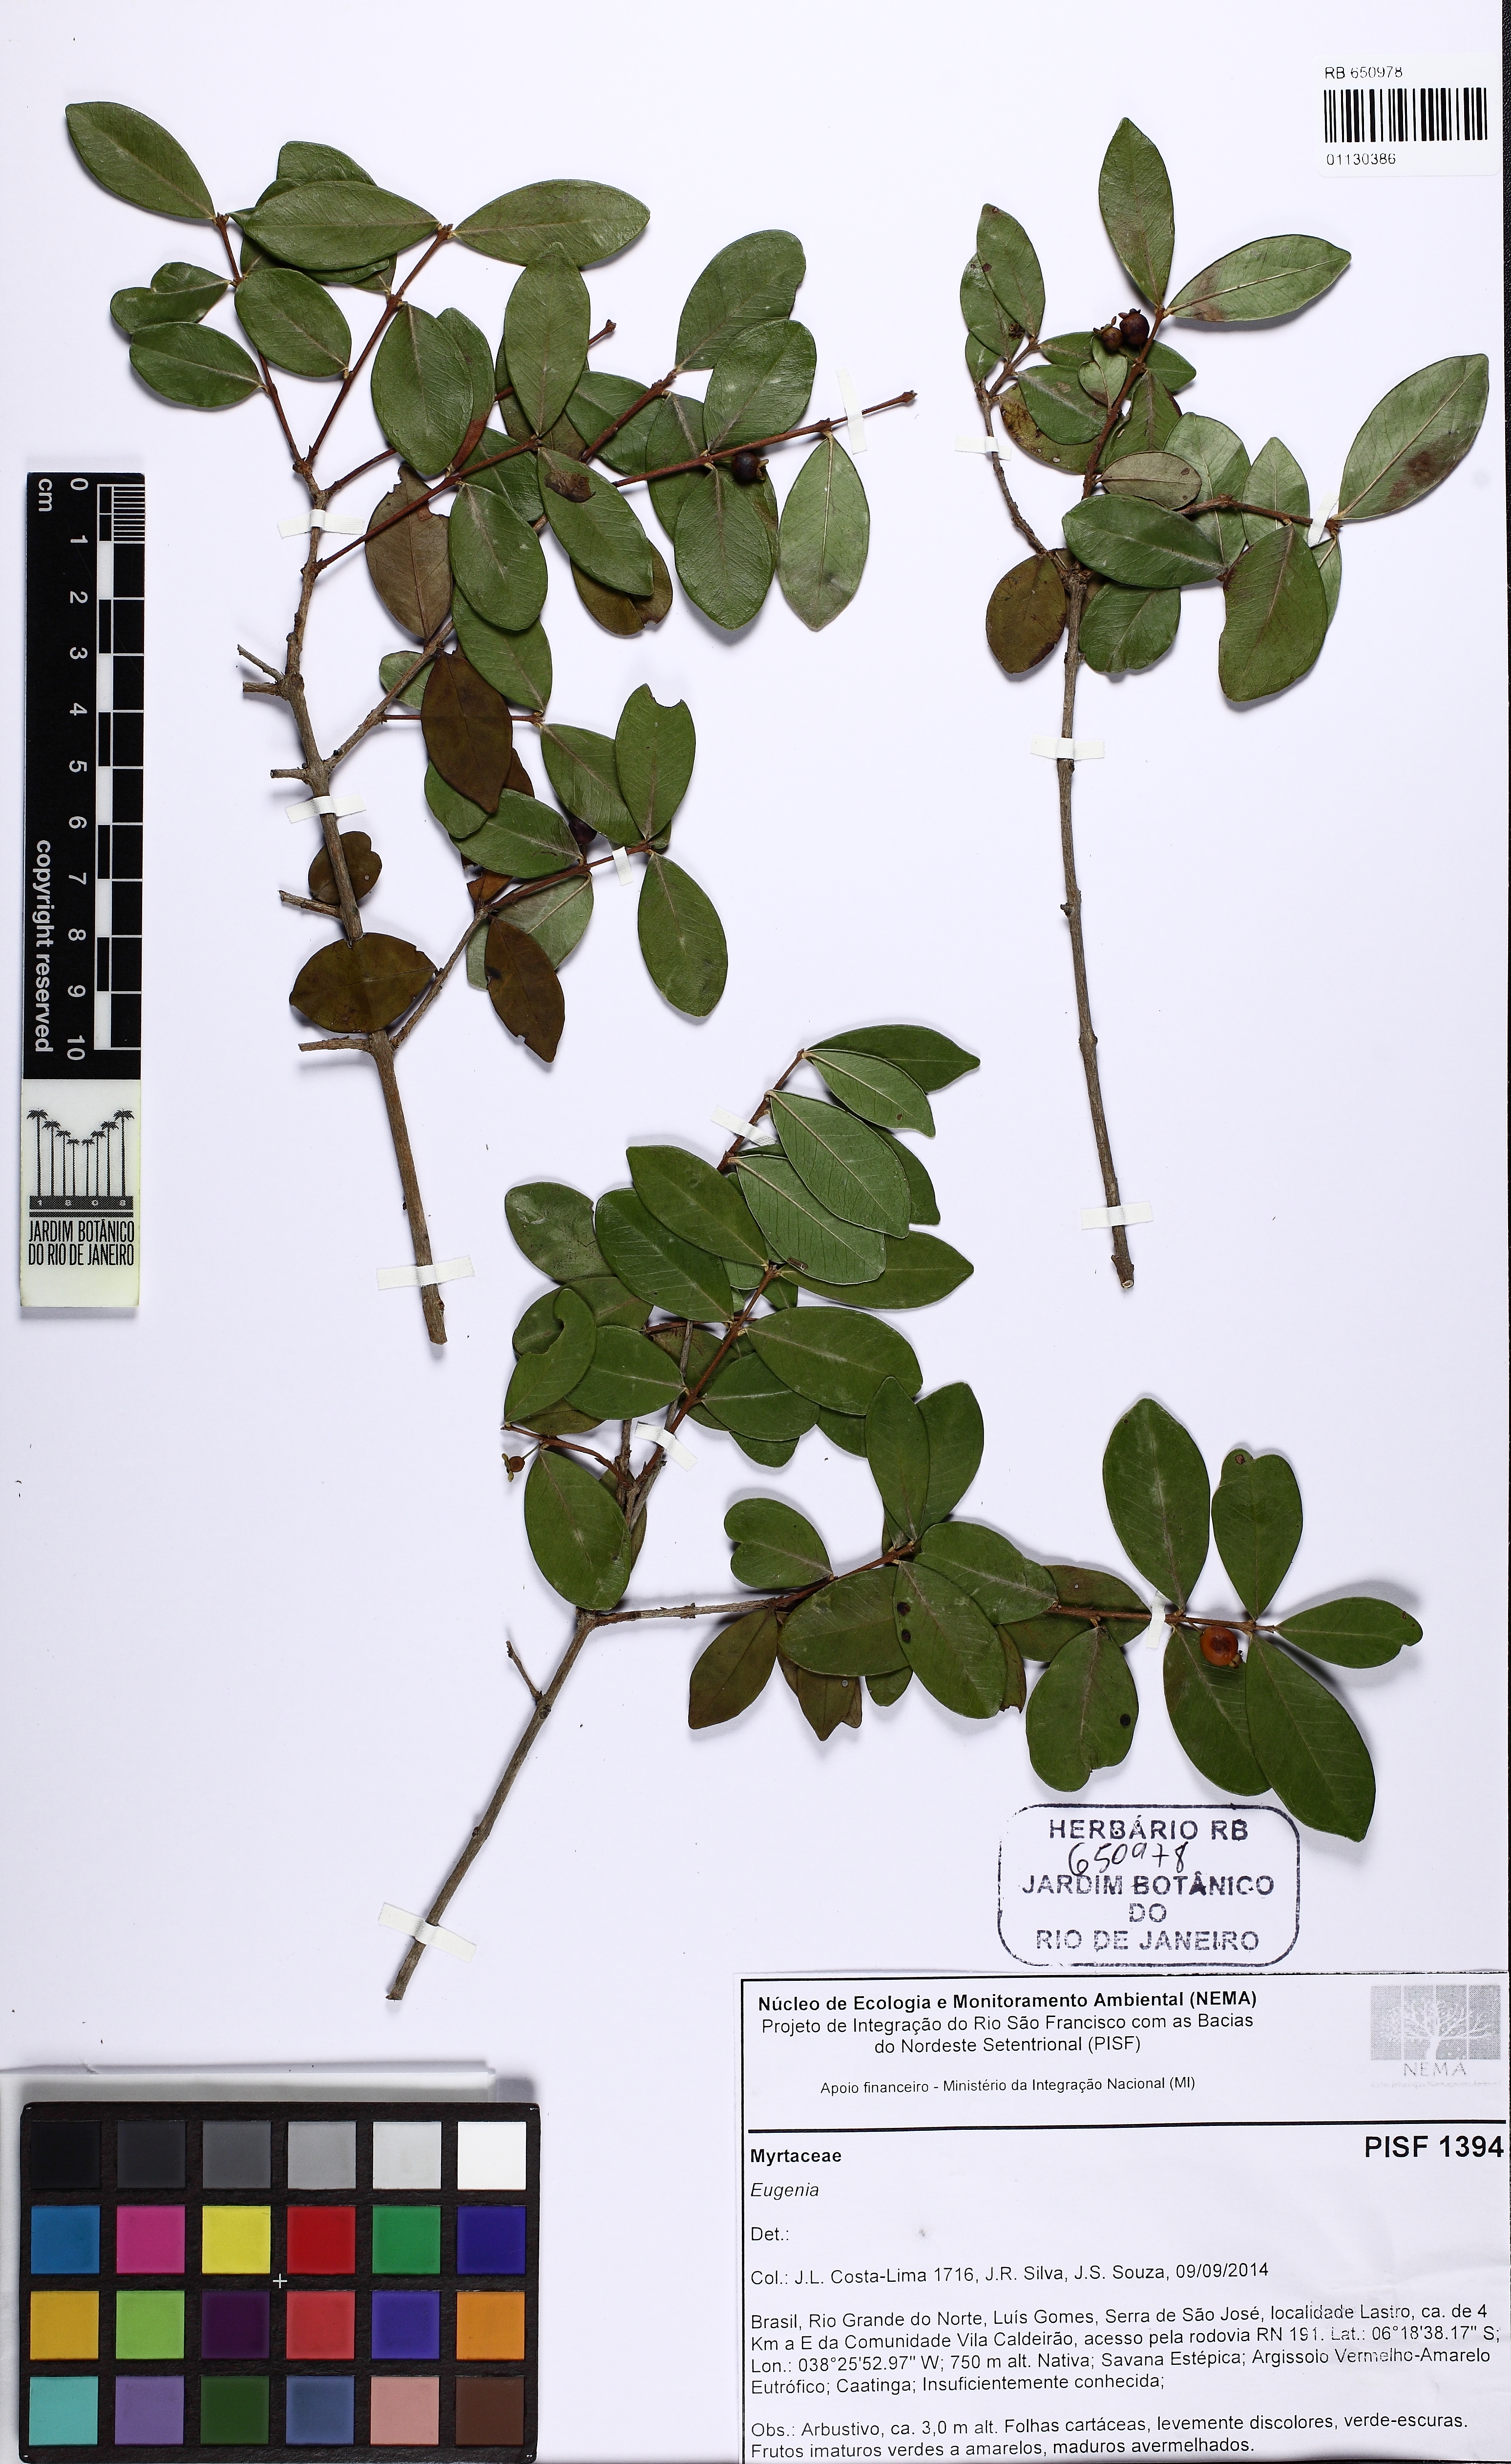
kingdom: Plantae
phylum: Tracheophyta
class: Magnoliopsida
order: Myrtales
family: Myrtaceae
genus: Eugenia
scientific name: Eugenia punicifolia
